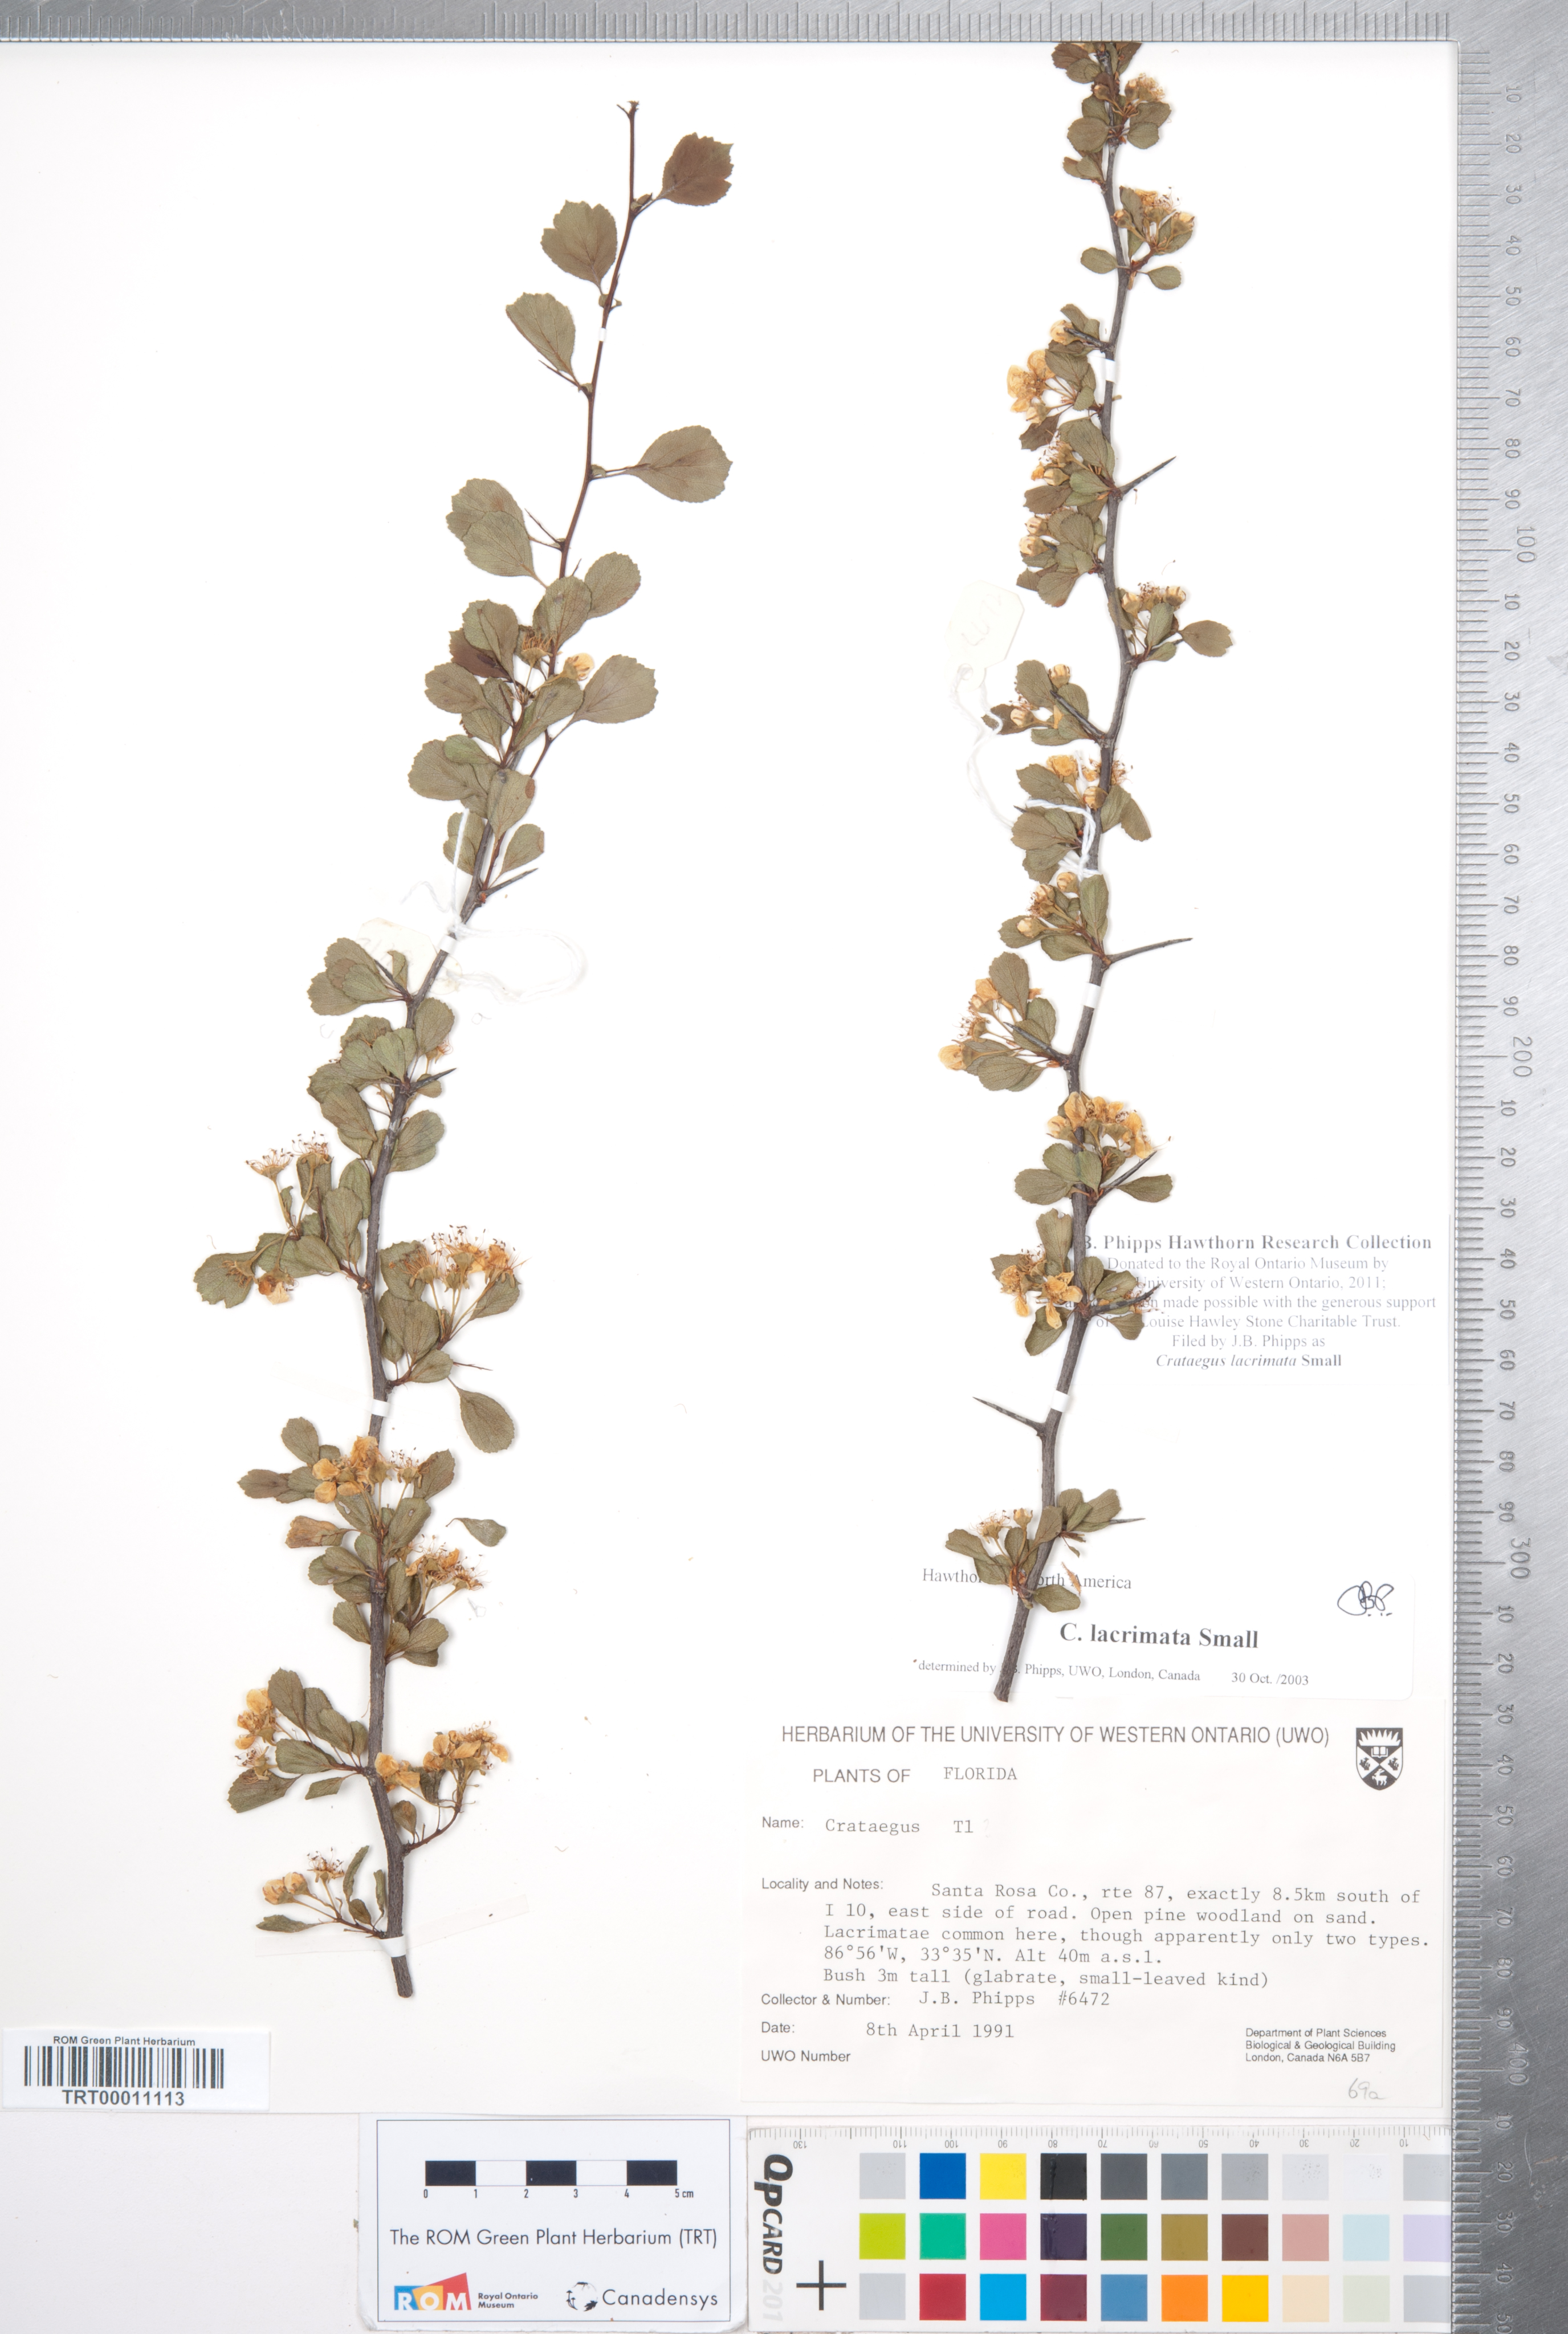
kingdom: Plantae
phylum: Tracheophyta
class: Magnoliopsida
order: Rosales
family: Rosaceae
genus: Crataegus
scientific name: Crataegus lacrimata
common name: Weeping hawthorn
